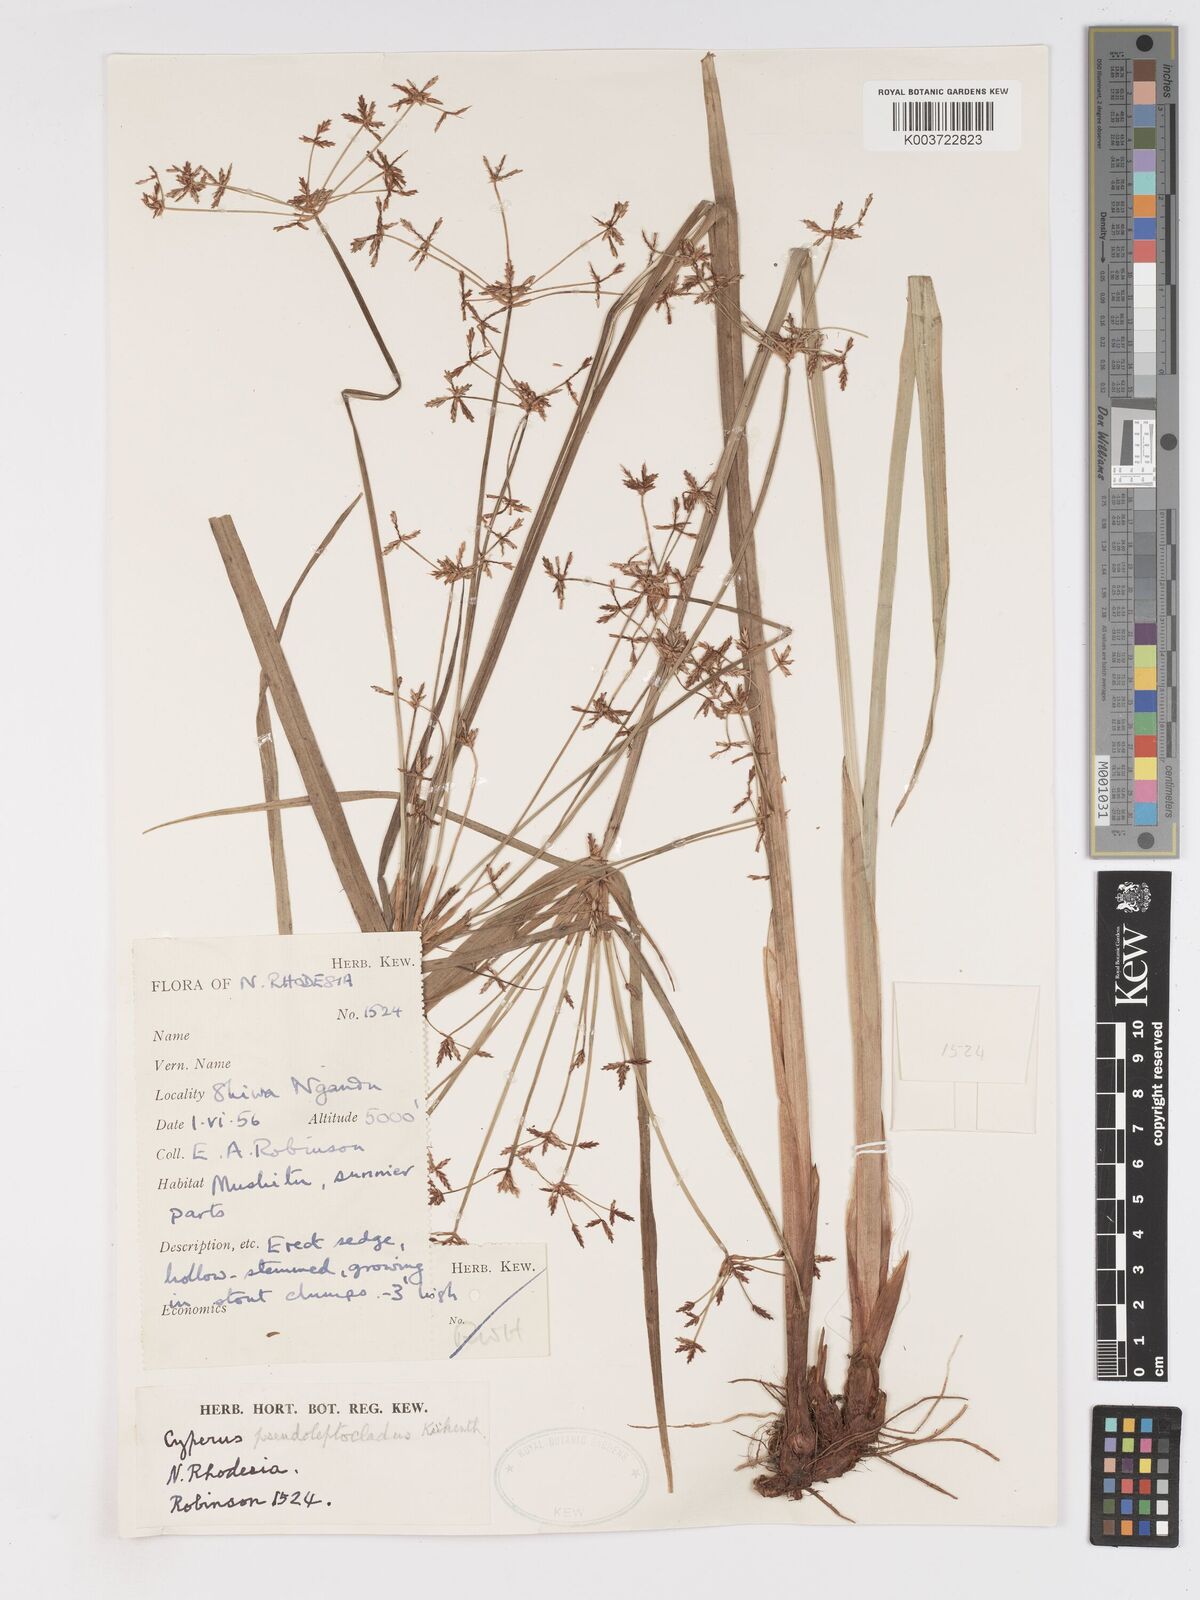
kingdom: Plantae
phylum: Tracheophyta
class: Liliopsida
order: Poales
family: Cyperaceae
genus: Cyperus
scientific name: Cyperus glaucophyllus
